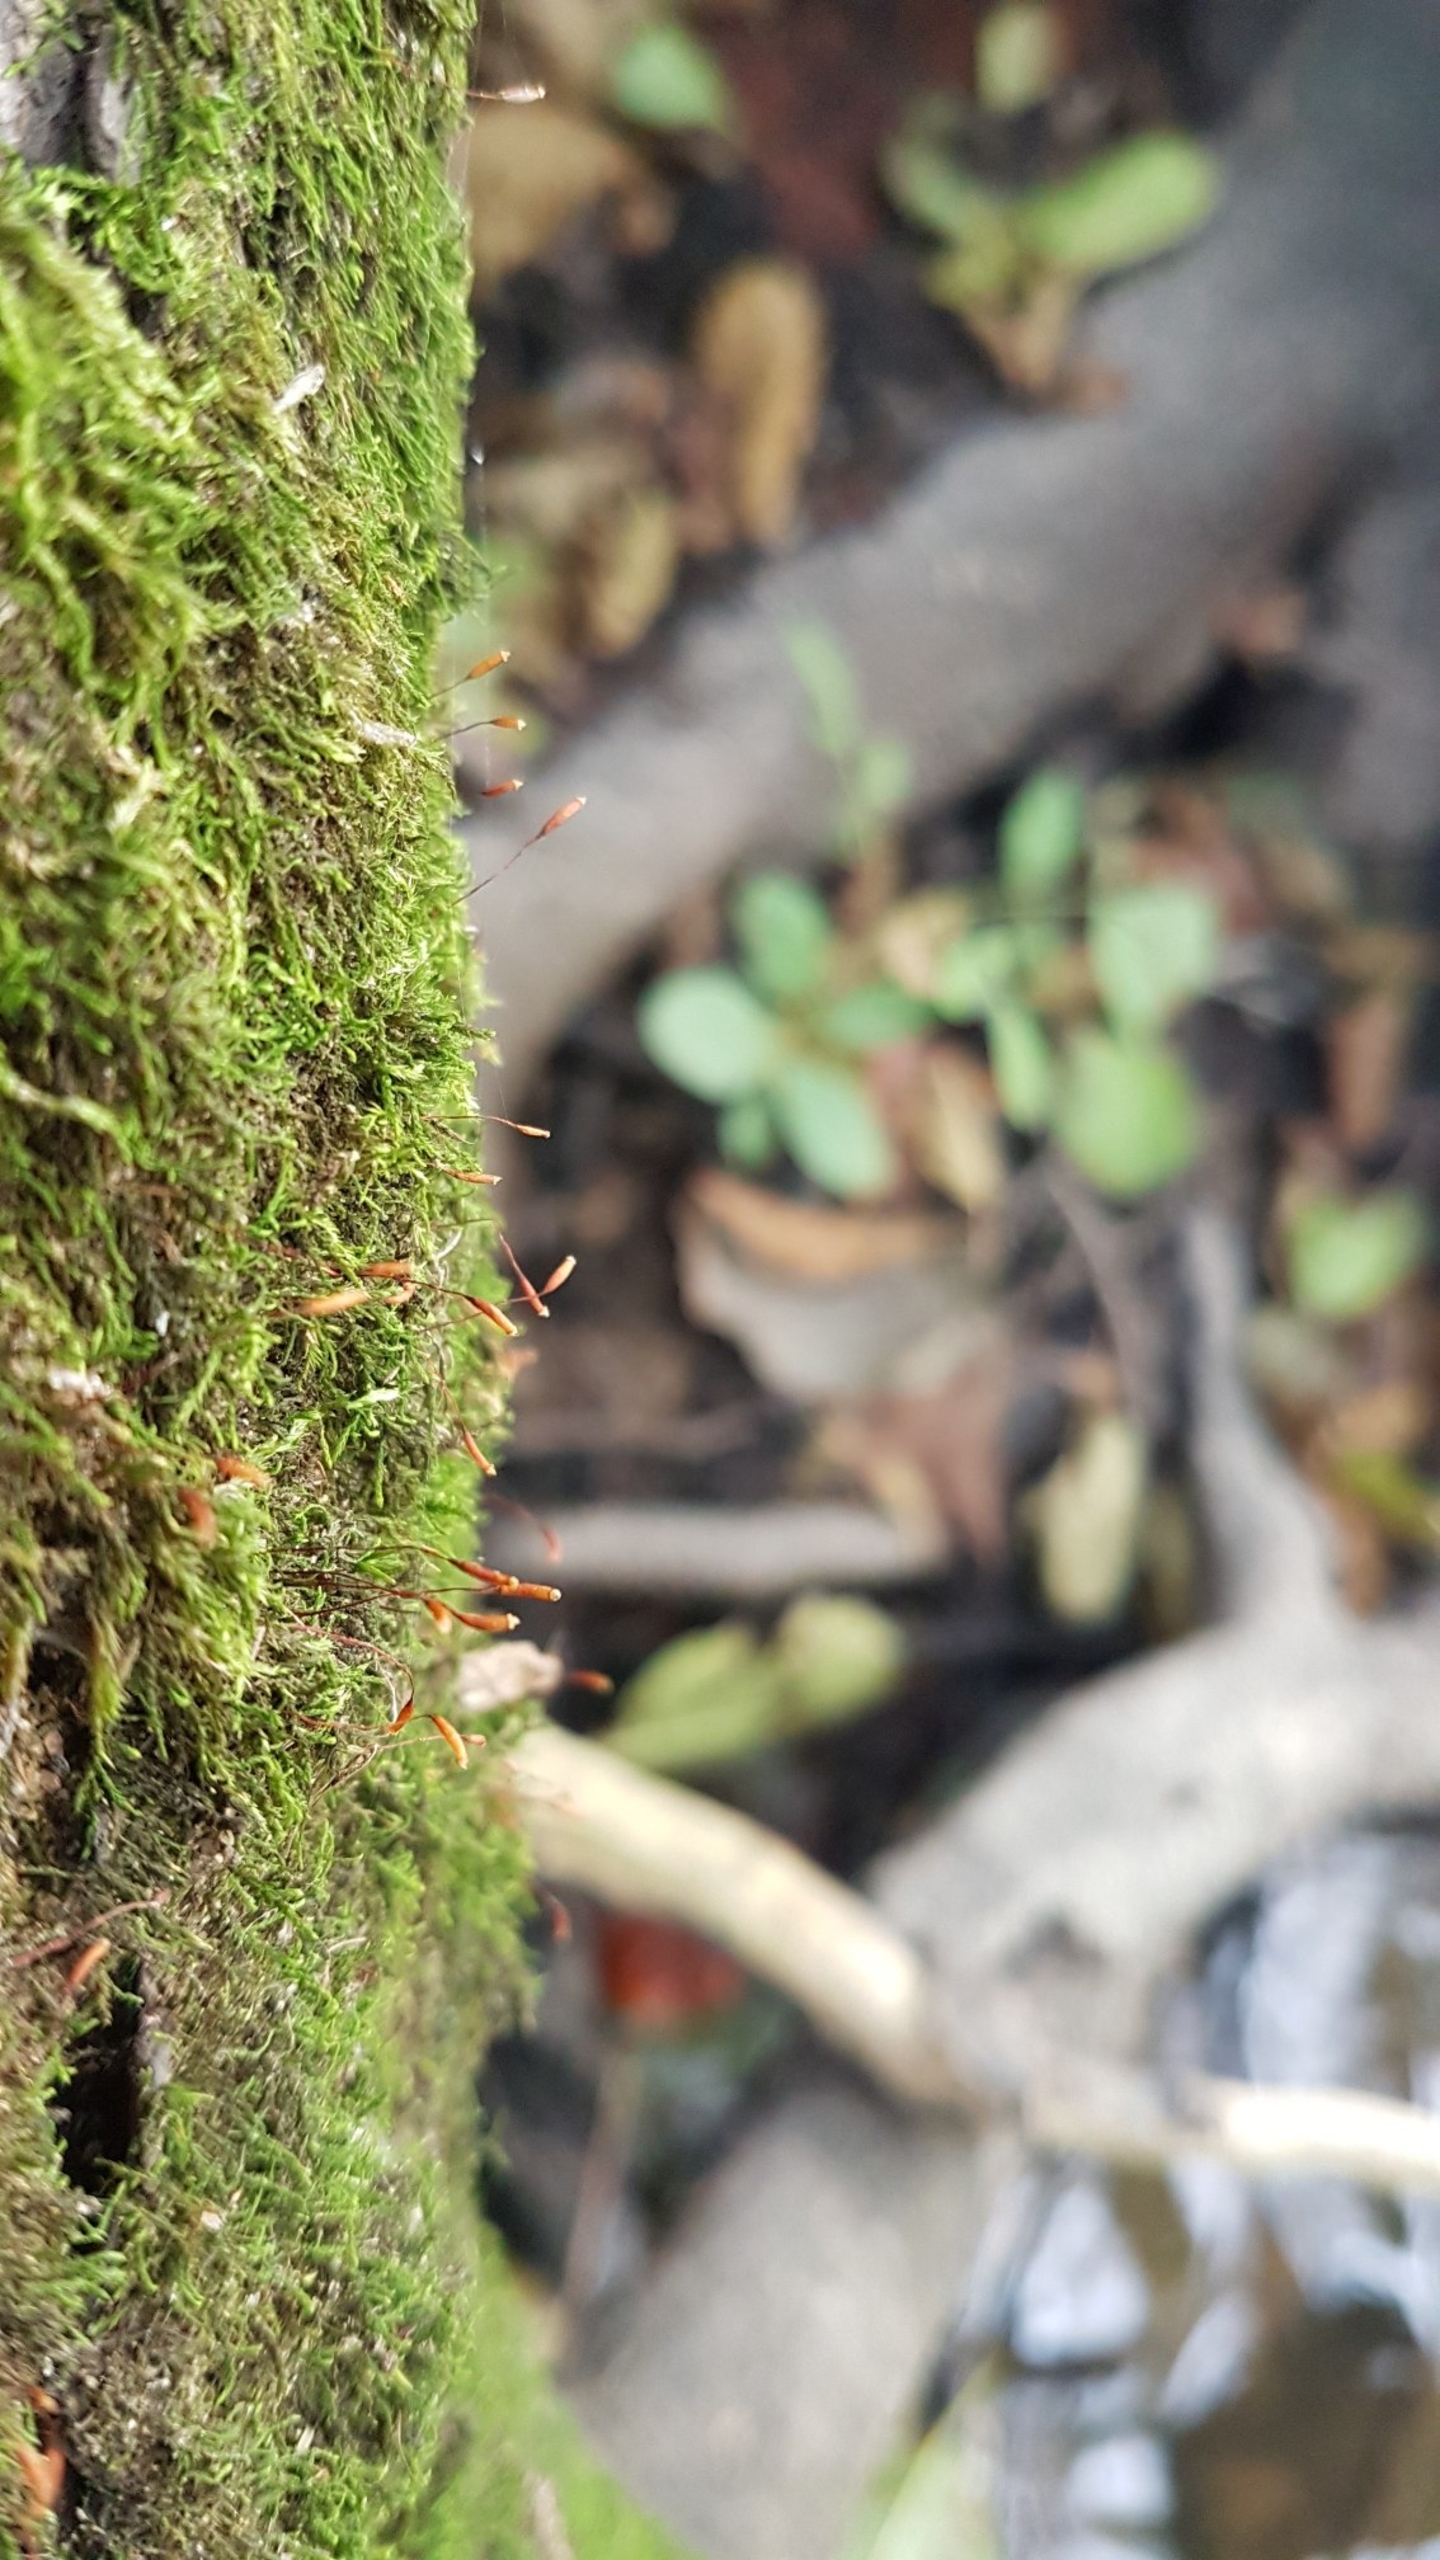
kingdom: Plantae
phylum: Bryophyta
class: Bryopsida
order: Hypnales
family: Leskeaceae
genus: Leskea
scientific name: Leskea polycarpa
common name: Mat lærkemos
